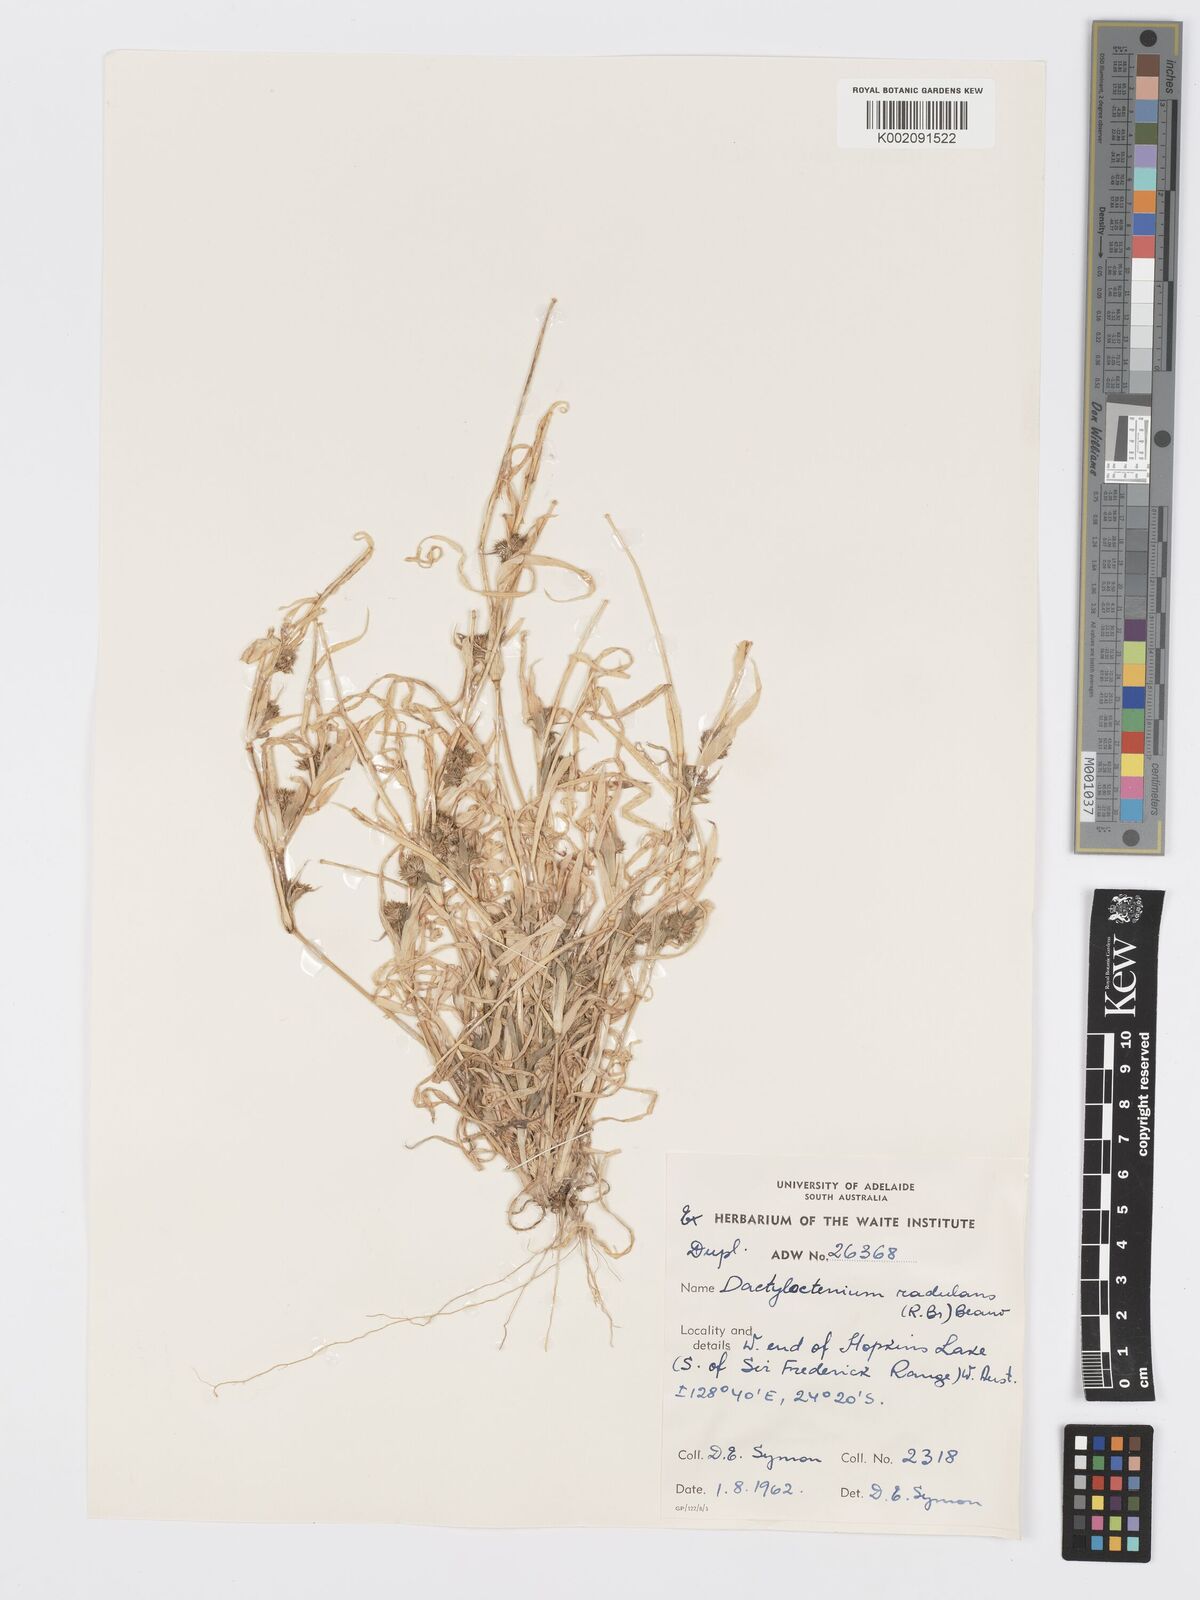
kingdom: Plantae
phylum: Tracheophyta
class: Liliopsida
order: Poales
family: Poaceae
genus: Dactyloctenium
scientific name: Dactyloctenium radulans
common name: Button-grass
